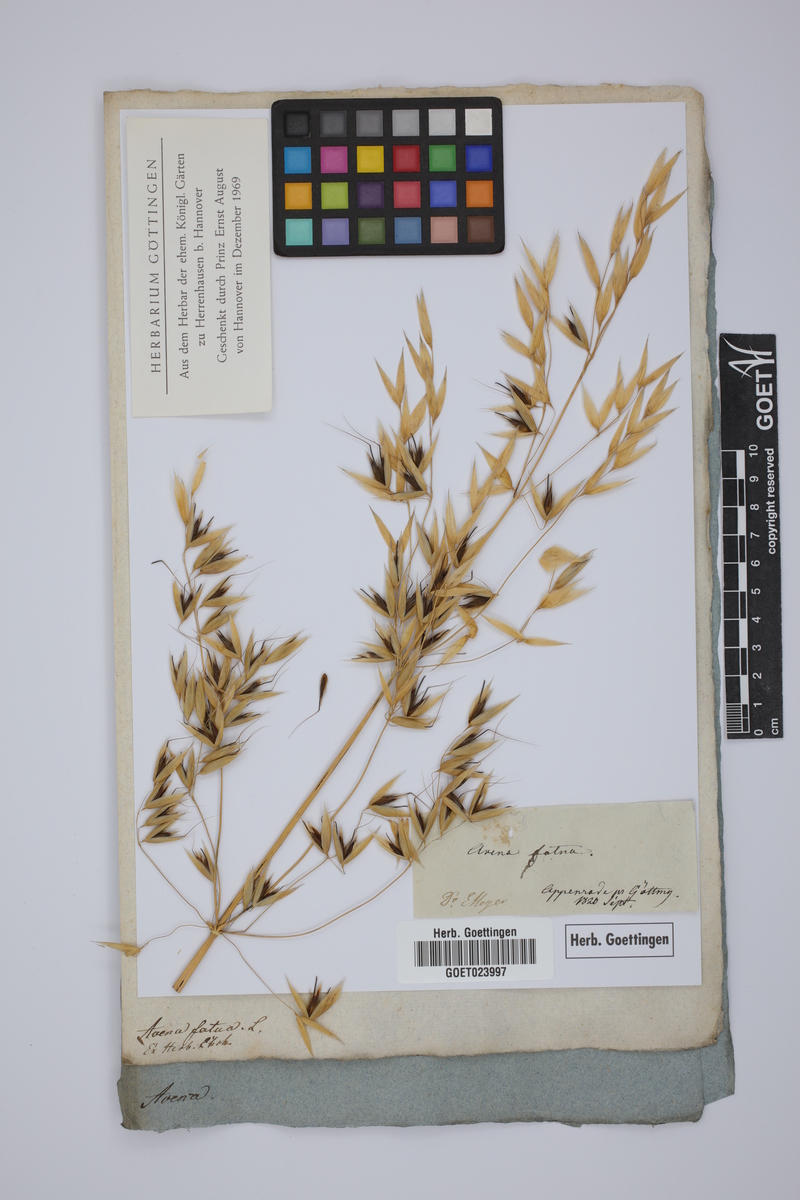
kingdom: Plantae
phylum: Tracheophyta
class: Liliopsida
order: Poales
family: Poaceae
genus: Avena
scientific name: Avena fatua
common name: Wild oat
